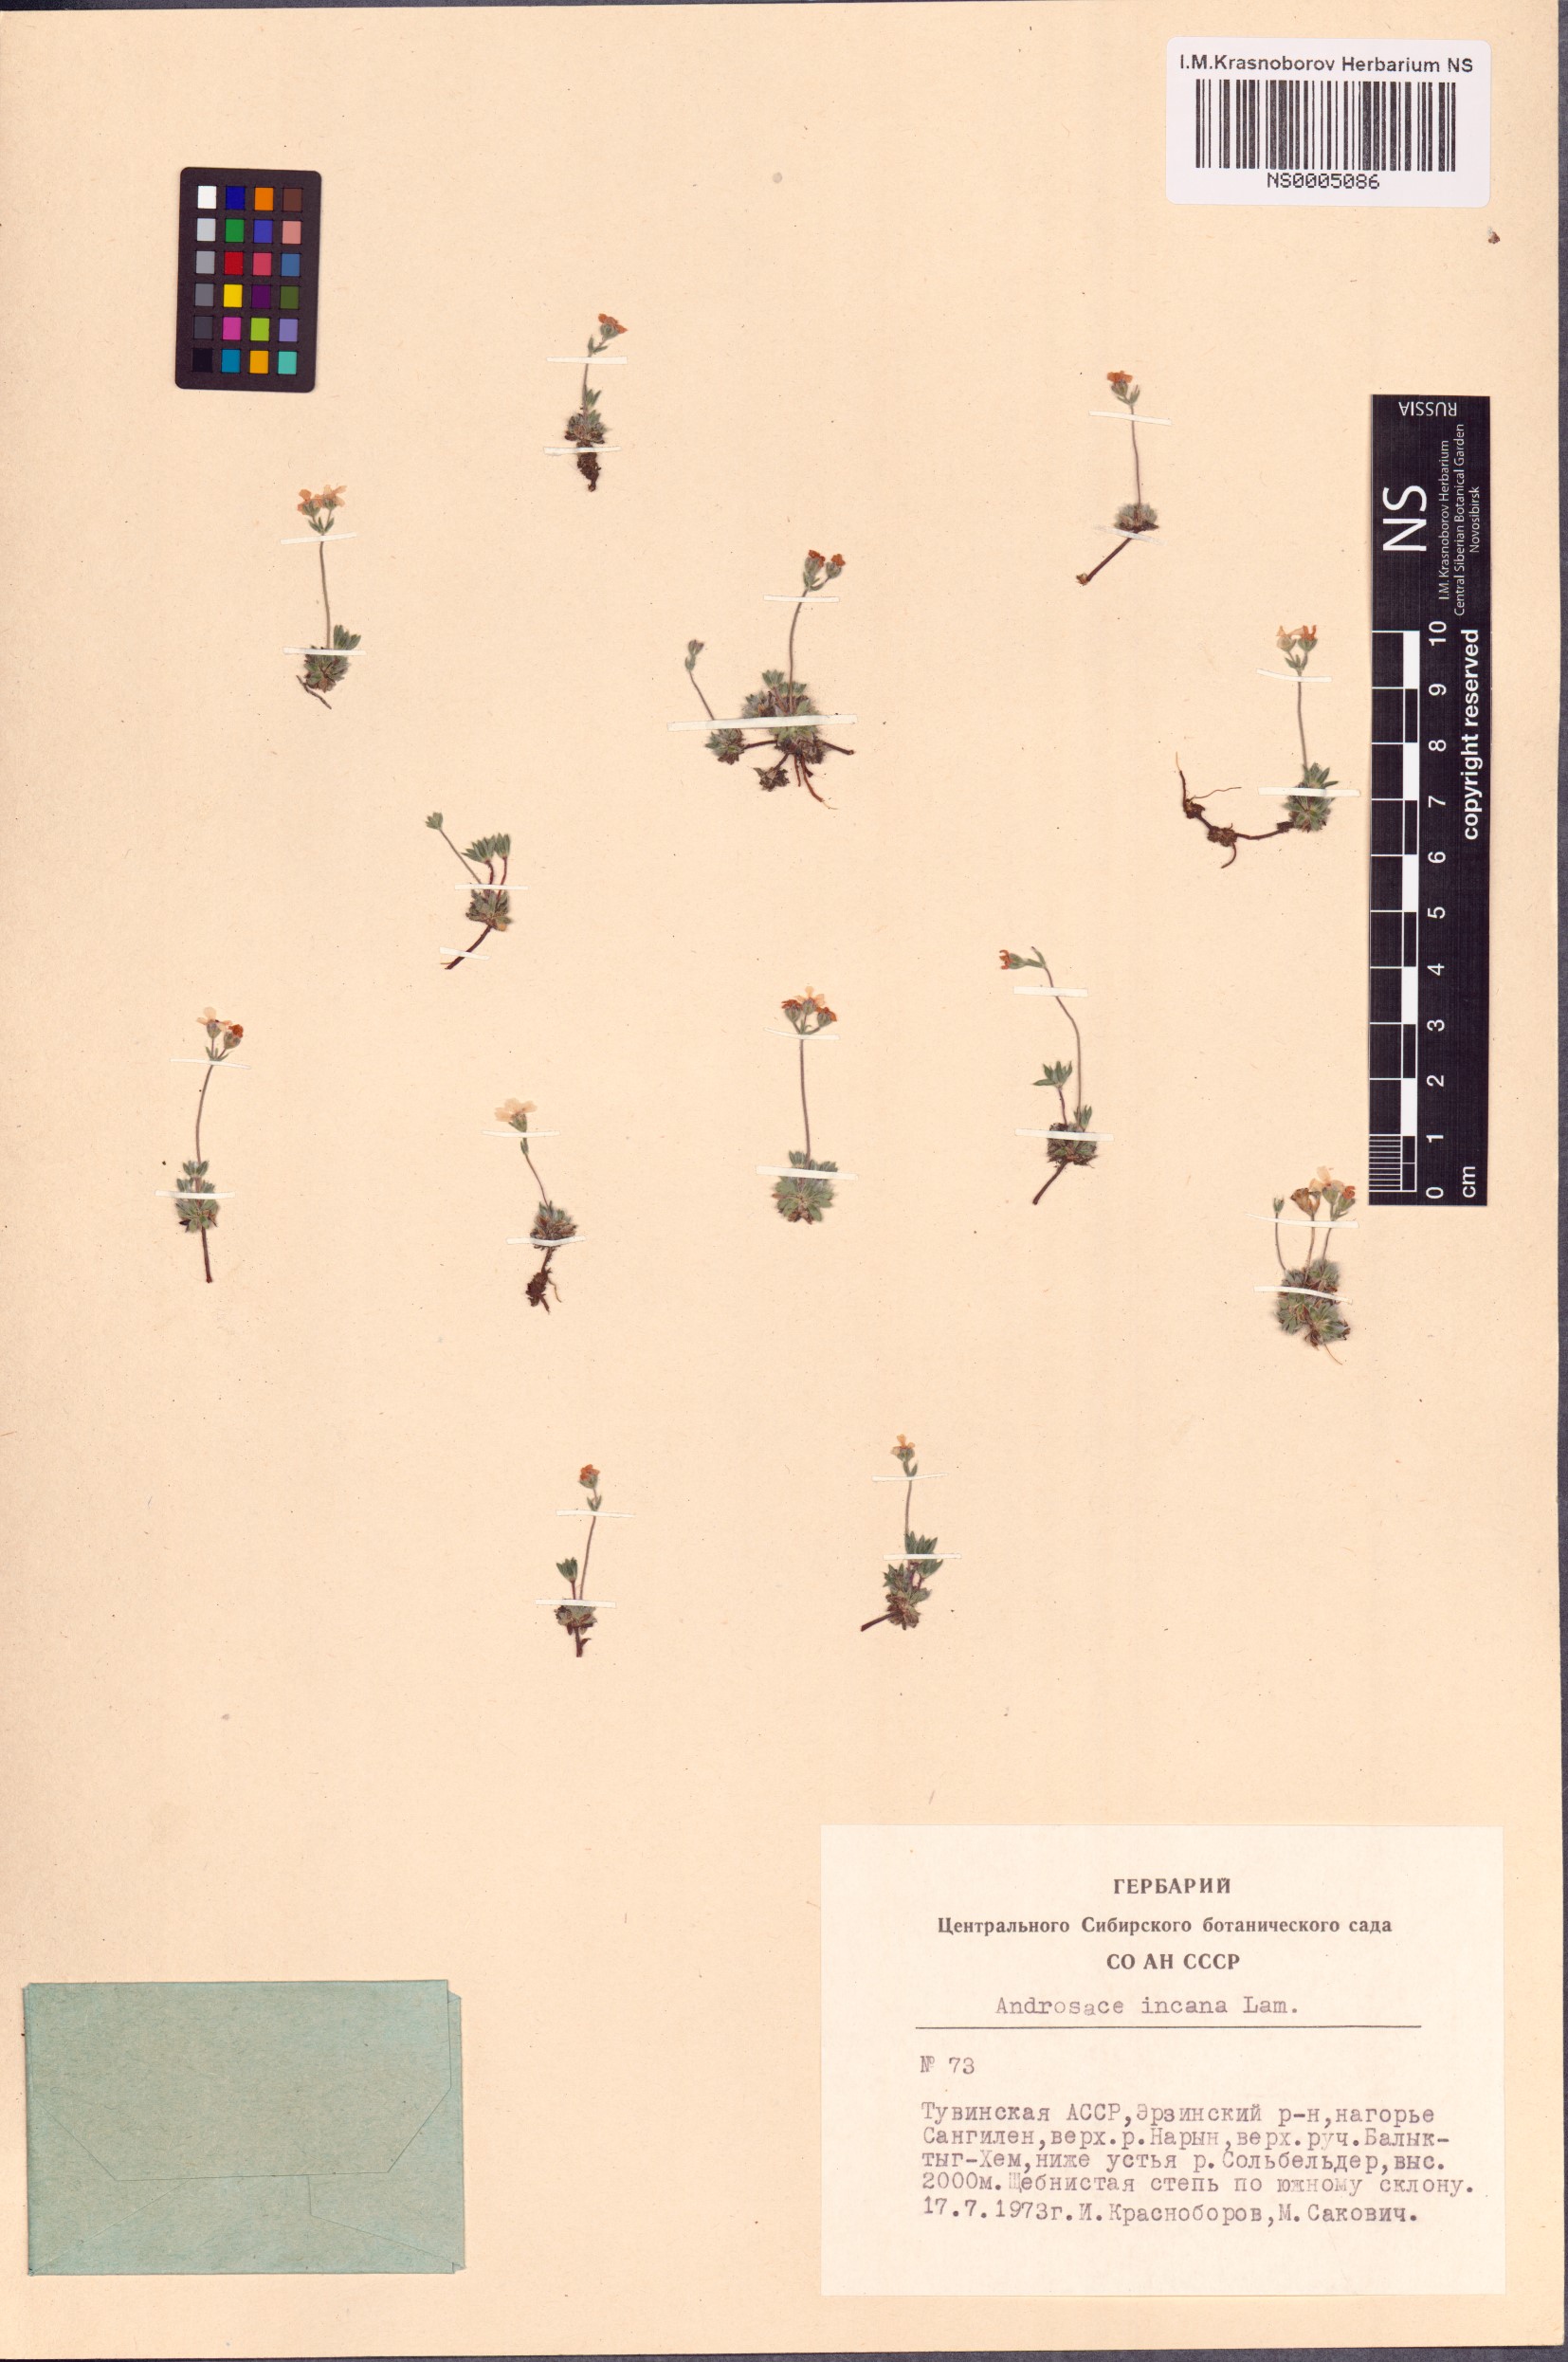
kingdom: Plantae
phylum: Tracheophyta
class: Magnoliopsida
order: Ericales
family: Primulaceae
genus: Androsace
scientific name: Androsace incana
